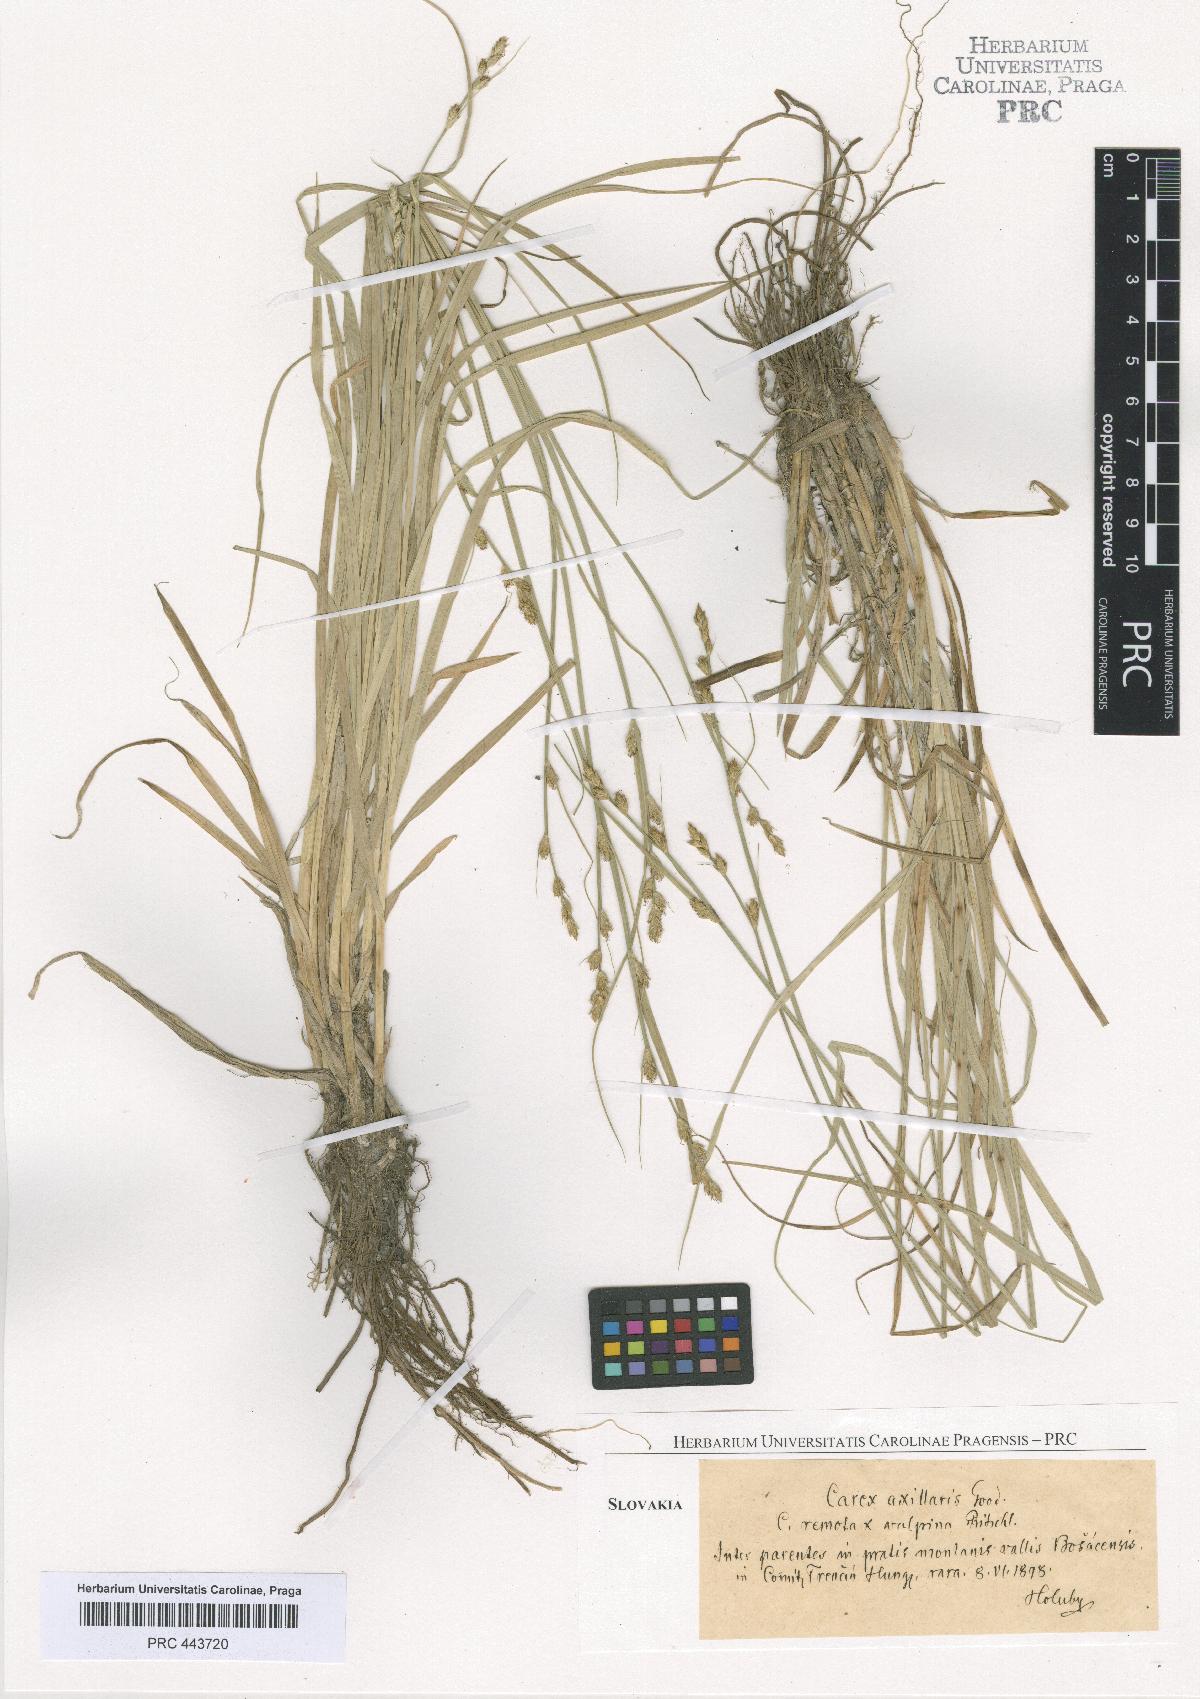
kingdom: Plantae
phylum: Tracheophyta
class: Liliopsida
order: Poales
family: Cyperaceae
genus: Carex
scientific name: Carex pseudoaxillaris
